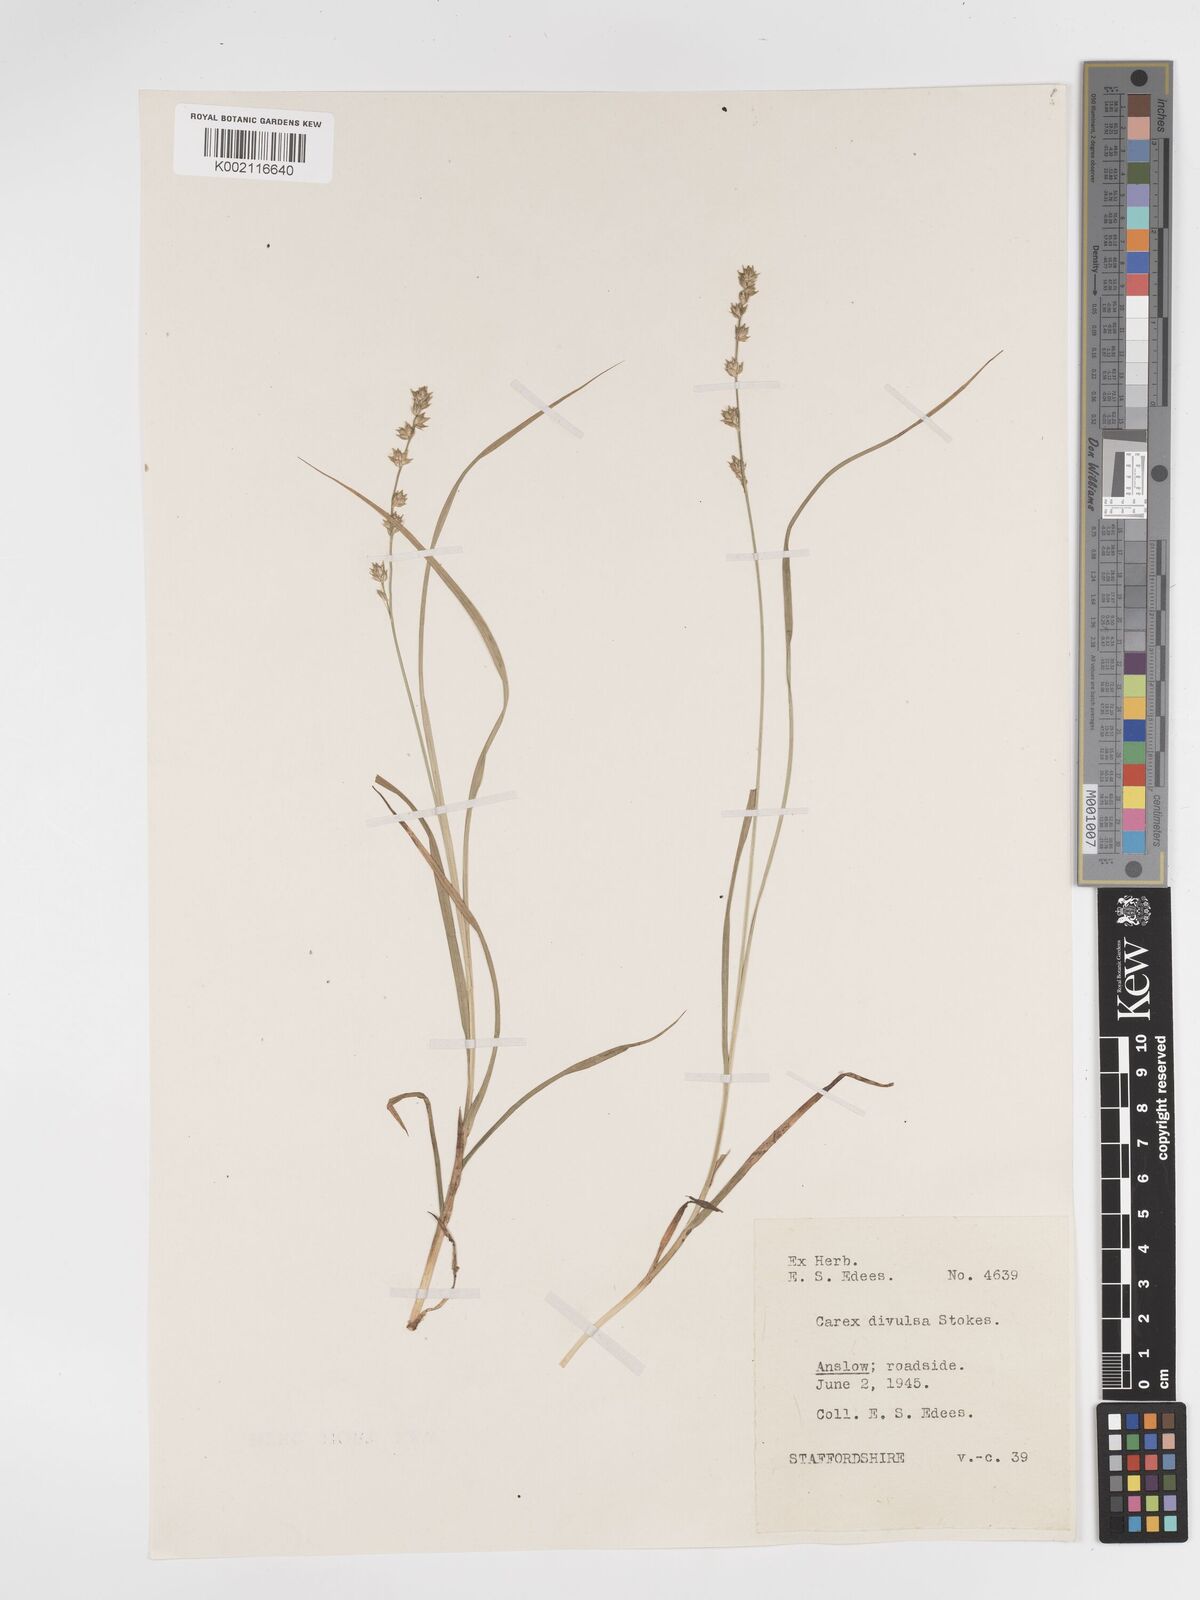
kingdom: Plantae
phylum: Tracheophyta
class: Liliopsida
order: Poales
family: Cyperaceae
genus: Carex
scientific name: Carex divulsa
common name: Grassland sedge
